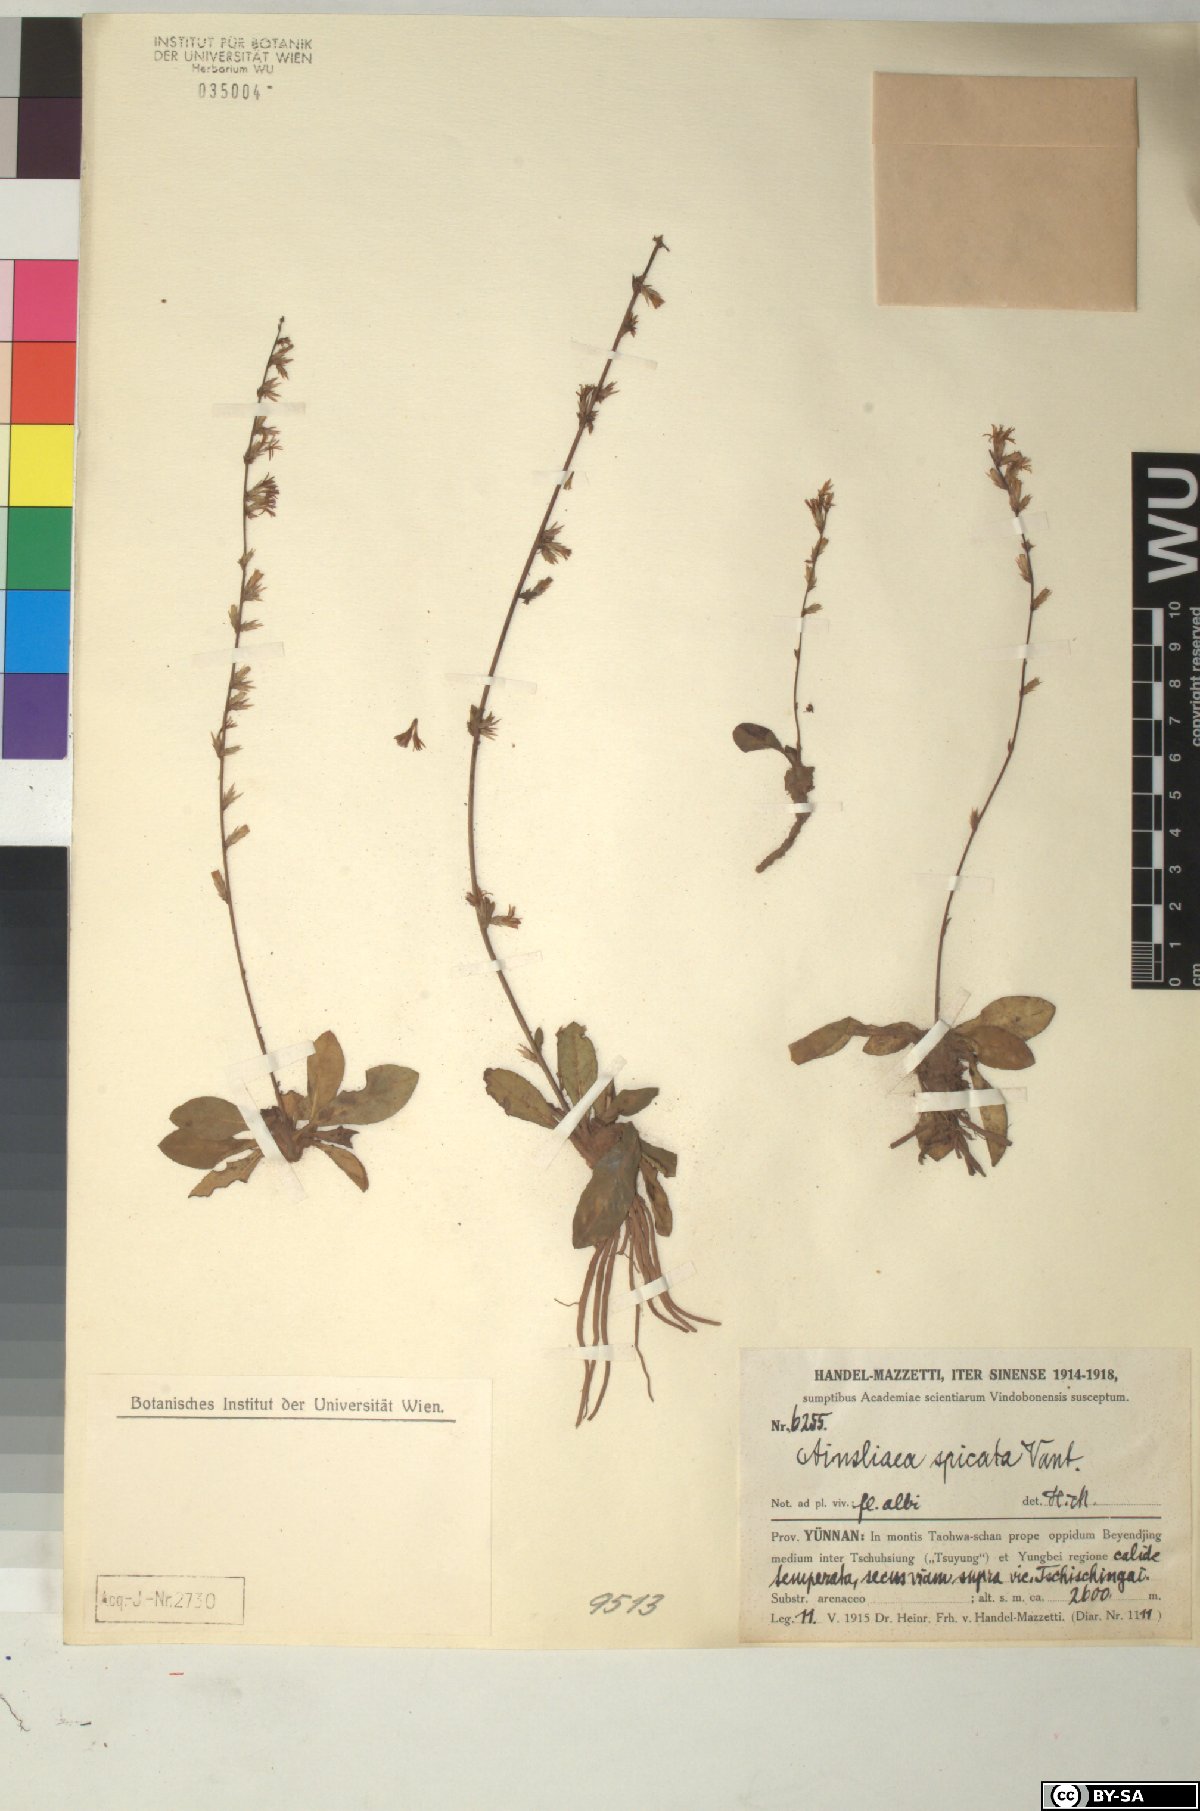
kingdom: Plantae
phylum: Tracheophyta
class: Magnoliopsida
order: Asterales
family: Asteraceae
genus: Ainsliaea
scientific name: Ainsliaea spicata
